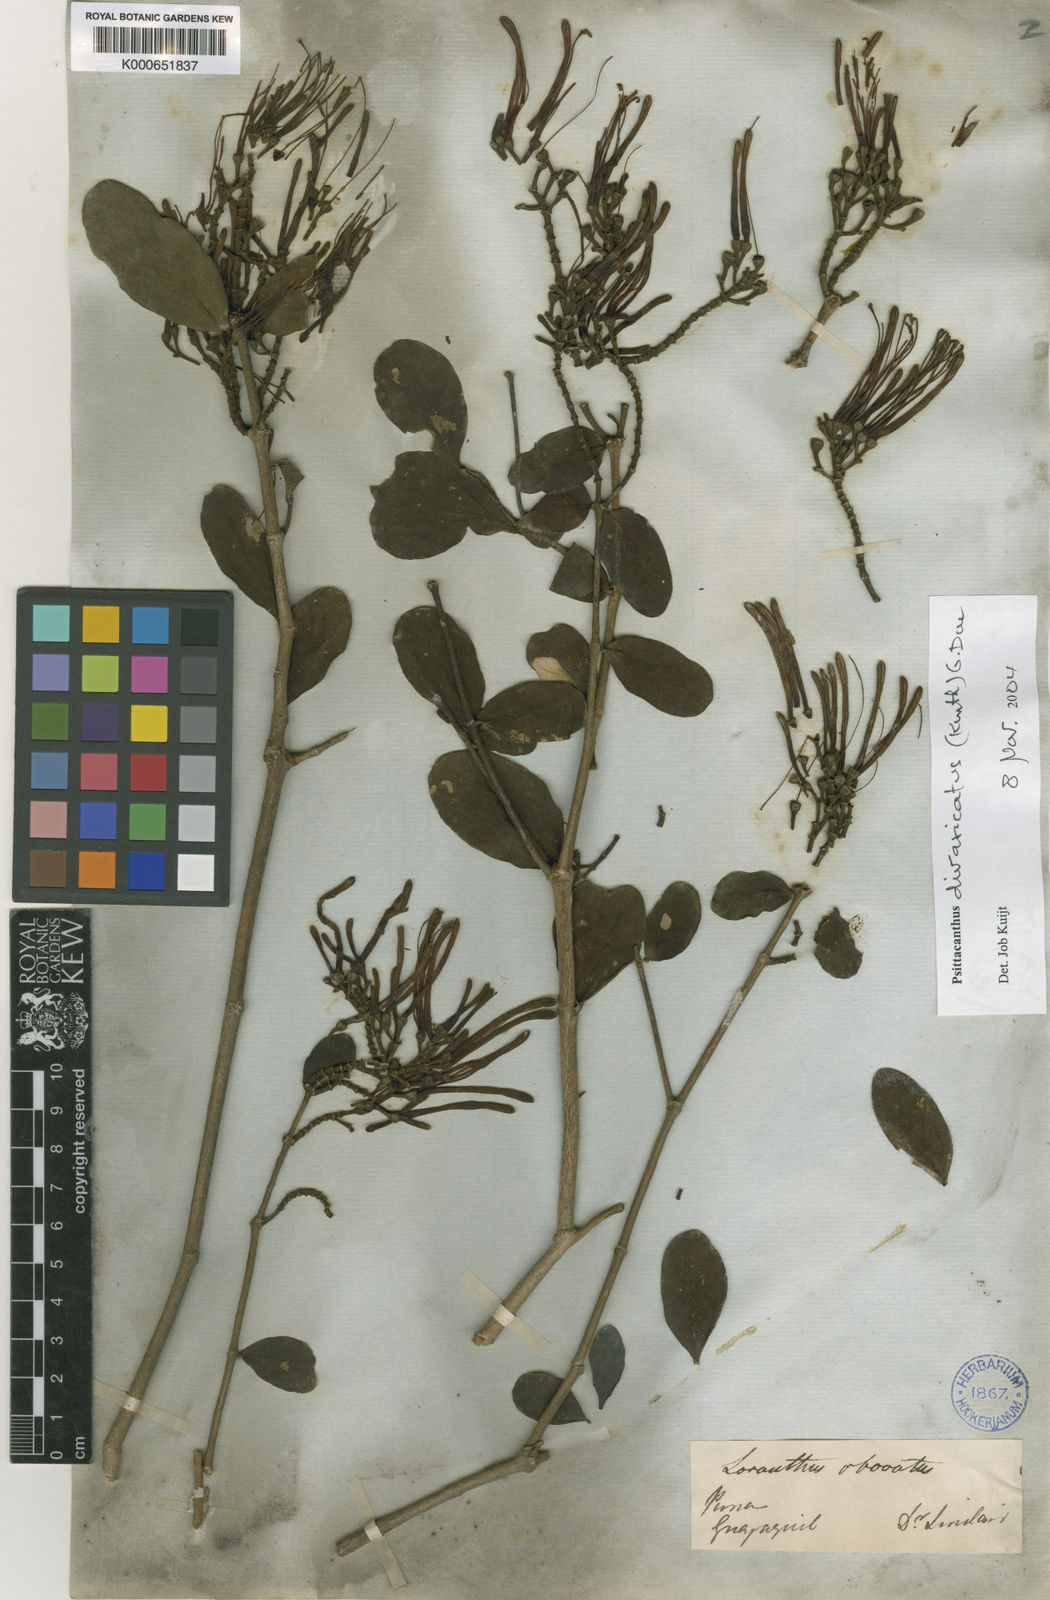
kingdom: Plantae
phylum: Tracheophyta
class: Magnoliopsida
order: Santalales
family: Loranthaceae
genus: Psittacanthus
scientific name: Psittacanthus divaricatus
